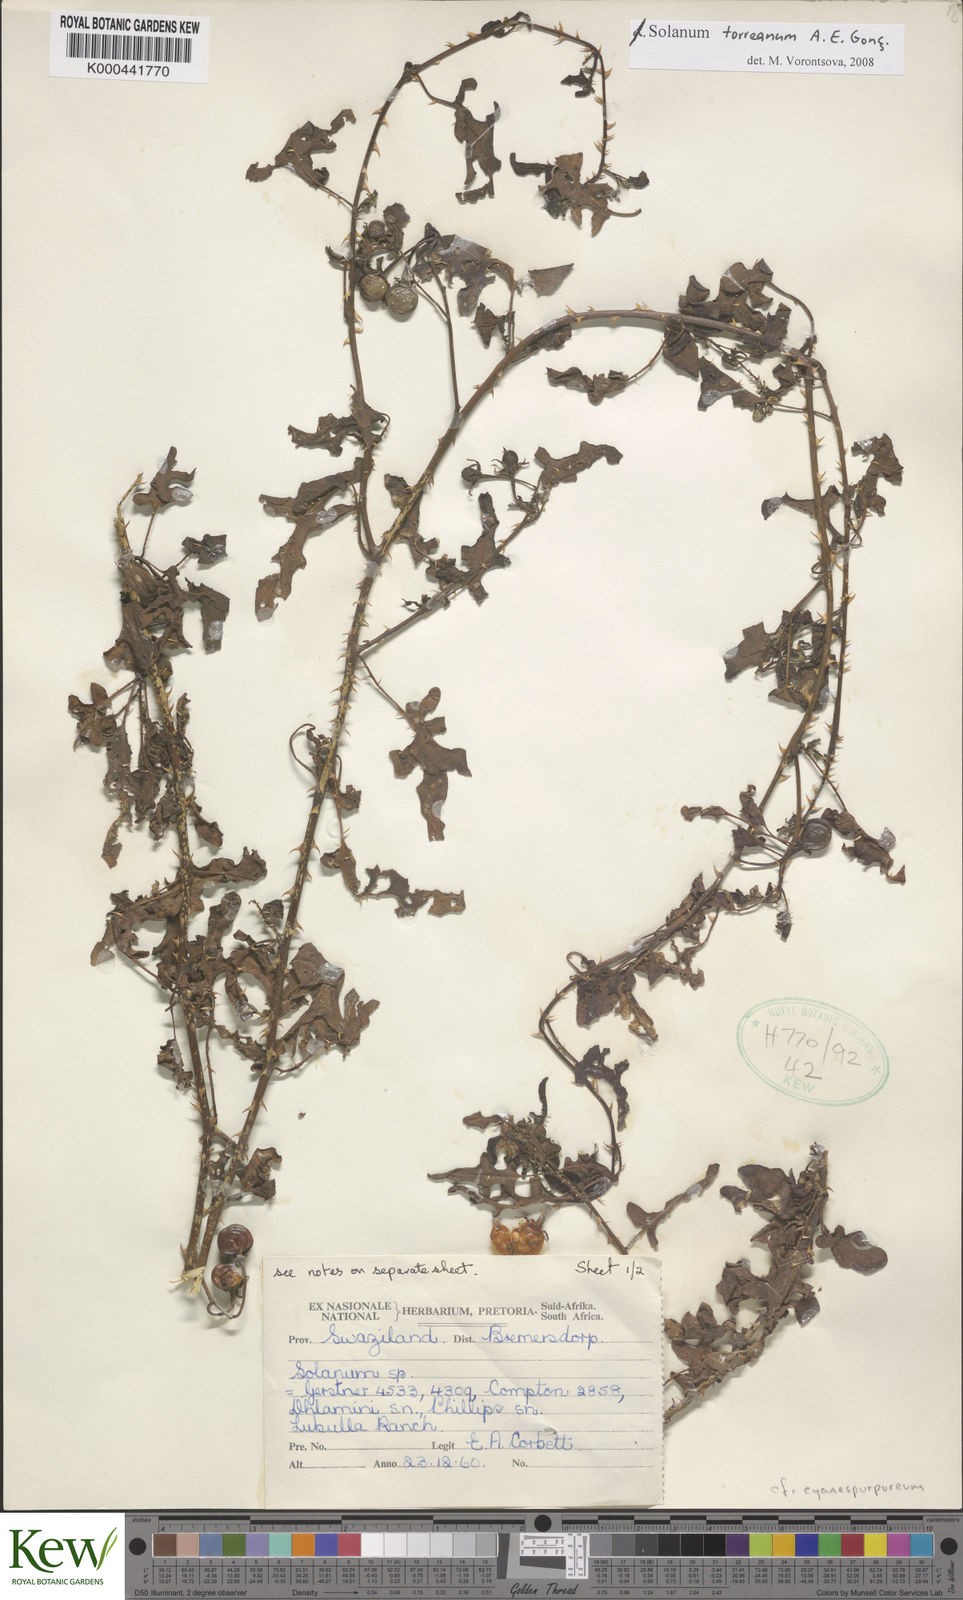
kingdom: Plantae
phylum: Tracheophyta
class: Magnoliopsida
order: Solanales
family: Solanaceae
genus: Solanum
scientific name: Solanum
